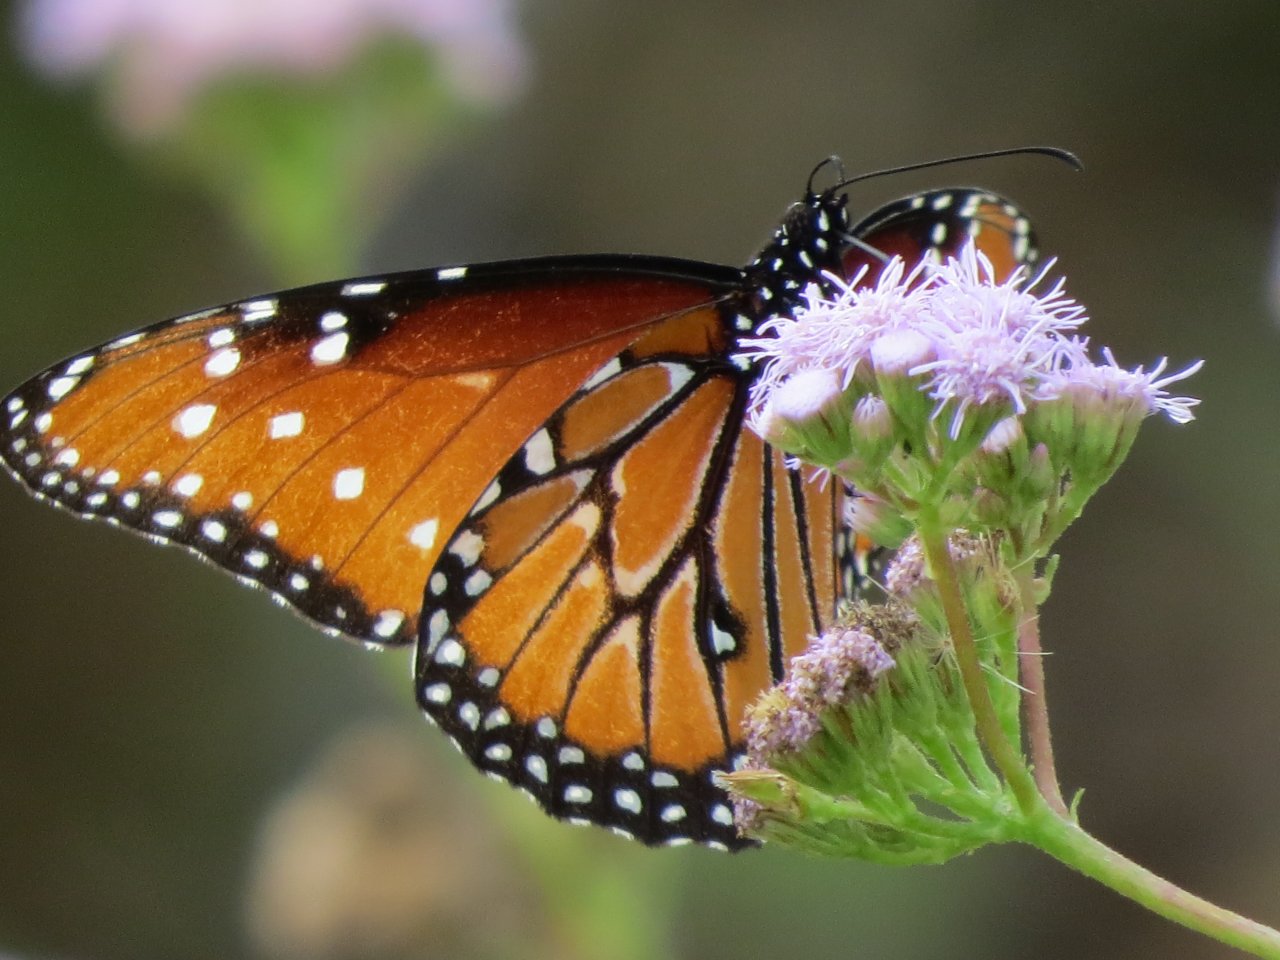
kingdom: Animalia
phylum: Arthropoda
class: Insecta
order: Lepidoptera
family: Nymphalidae
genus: Danaus
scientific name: Danaus gilippus
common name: Queen
